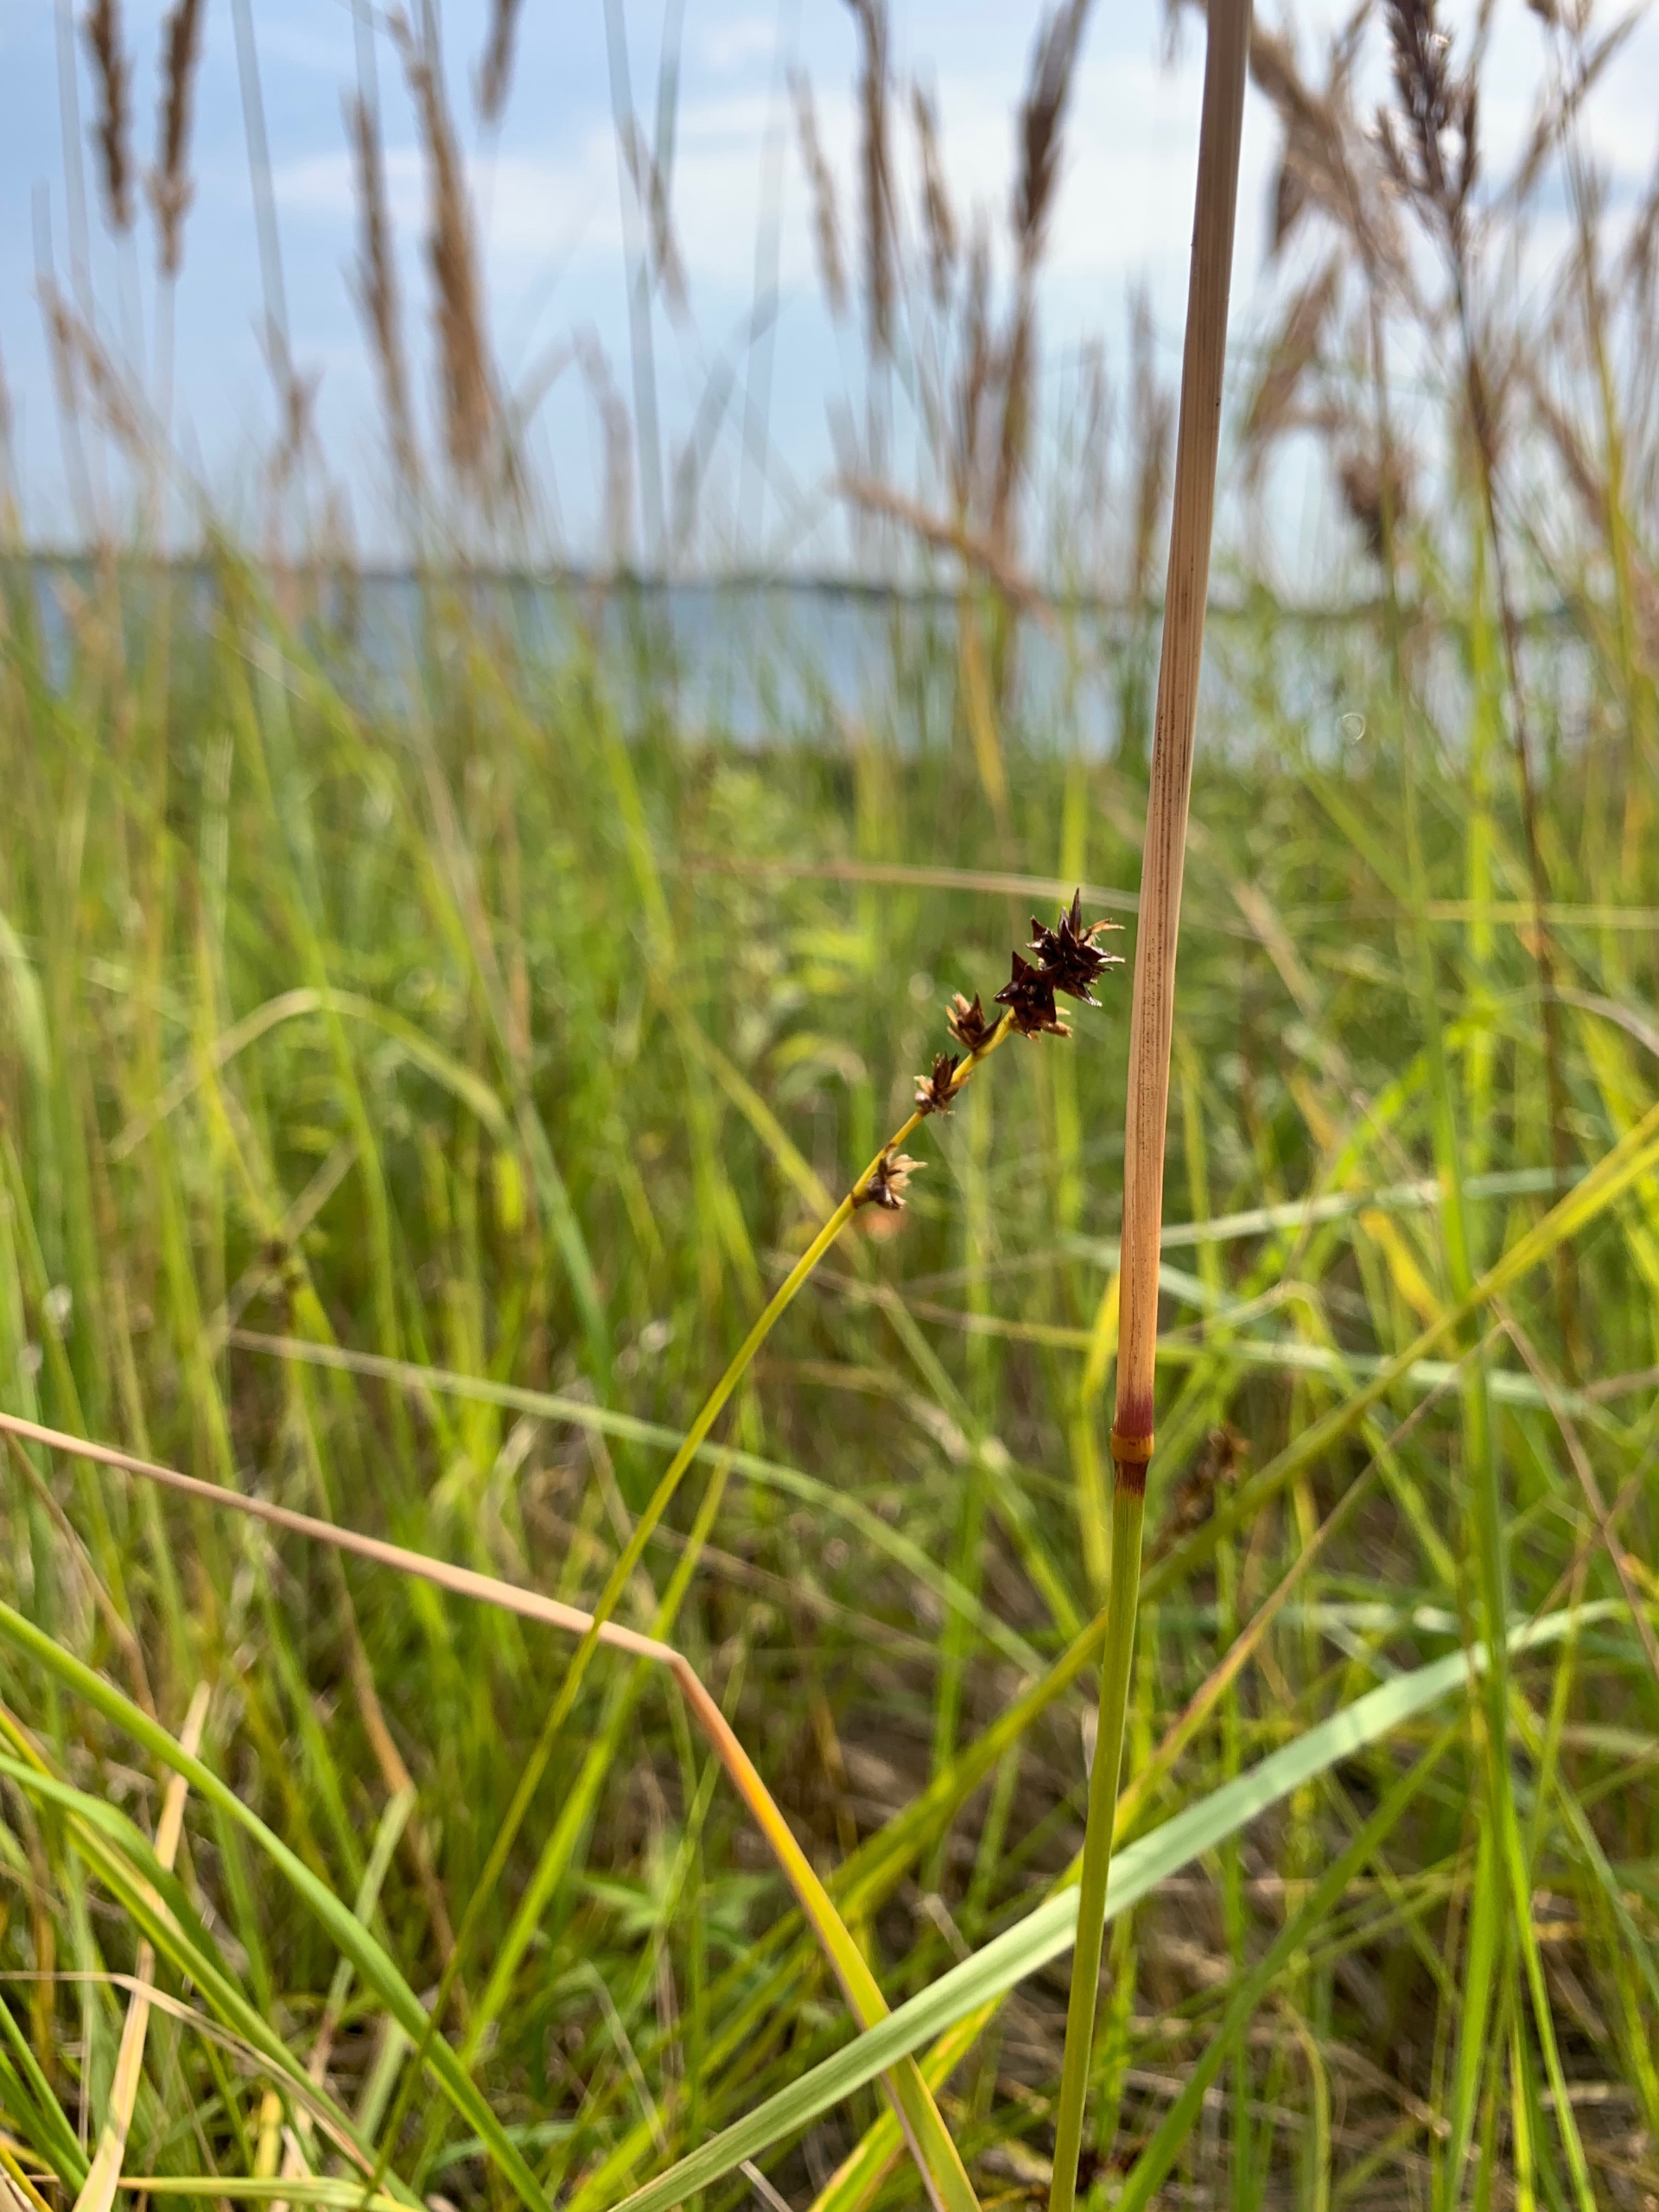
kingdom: Plantae
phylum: Tracheophyta
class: Liliopsida
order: Poales
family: Cyperaceae
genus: Carex
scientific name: Carex pairae
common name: Pigget star
